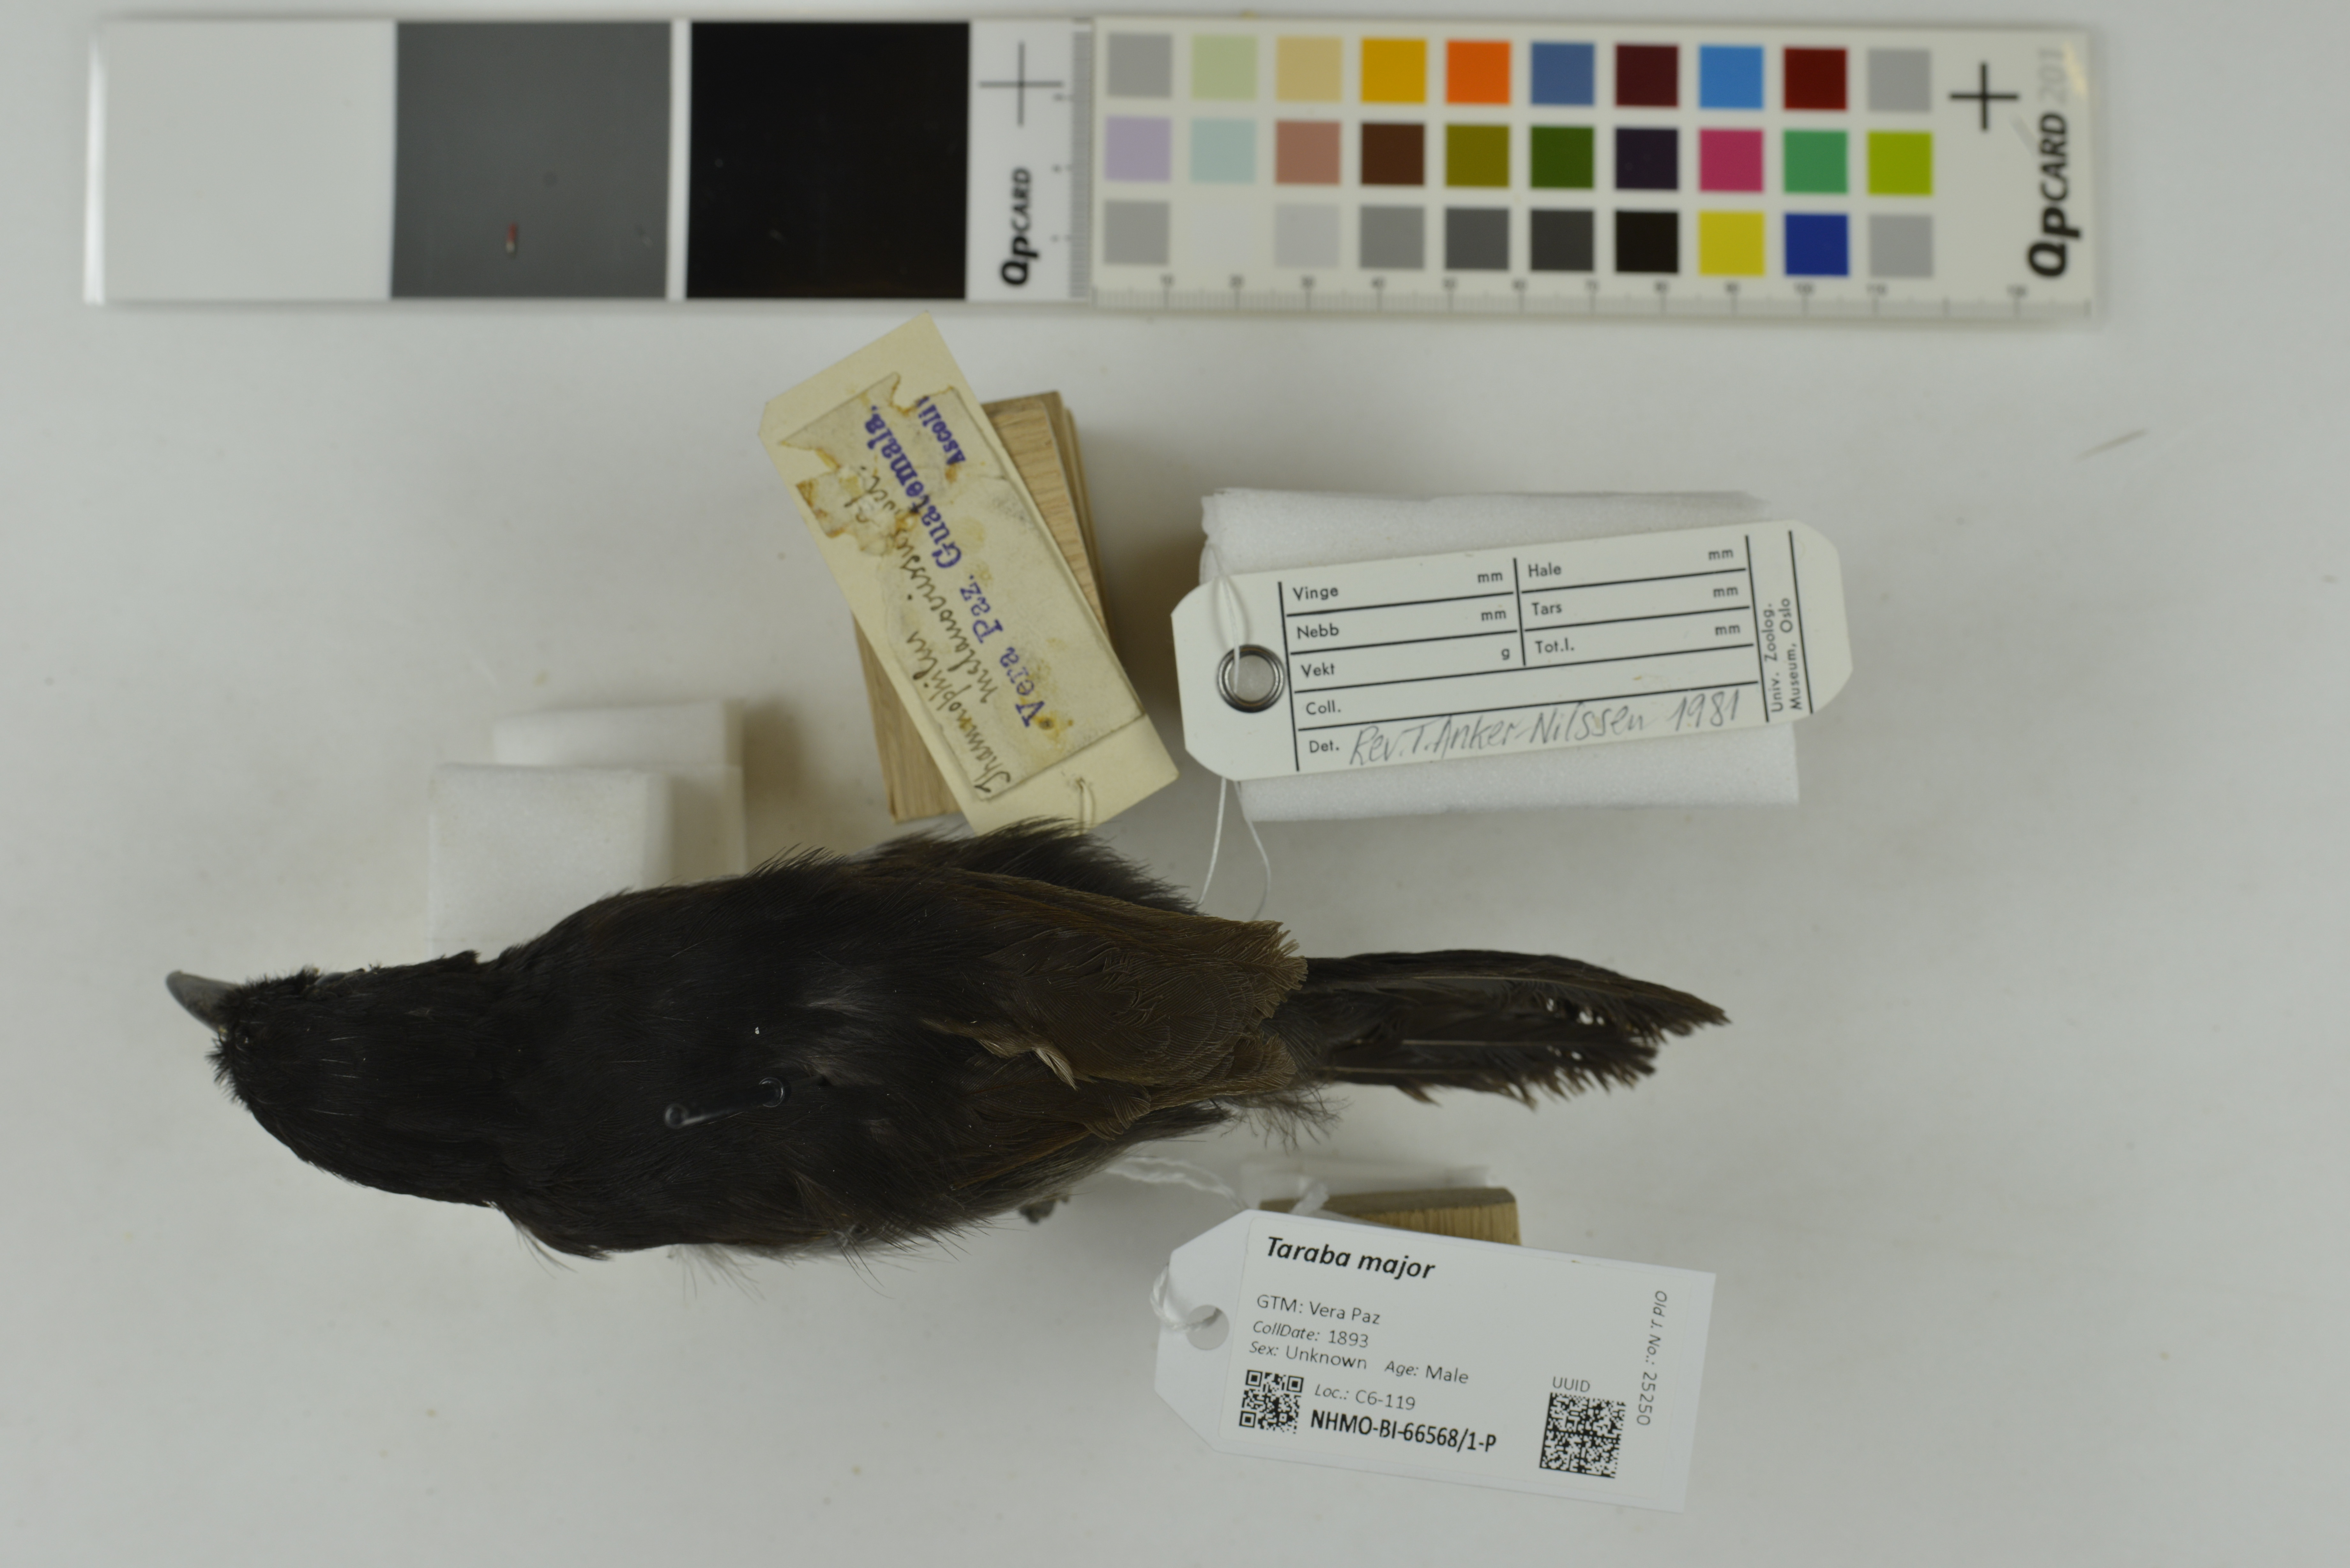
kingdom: Animalia
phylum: Chordata
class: Aves
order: Passeriformes
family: Thamnophilidae
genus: Taraba
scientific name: Taraba major
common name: Great antshrike
